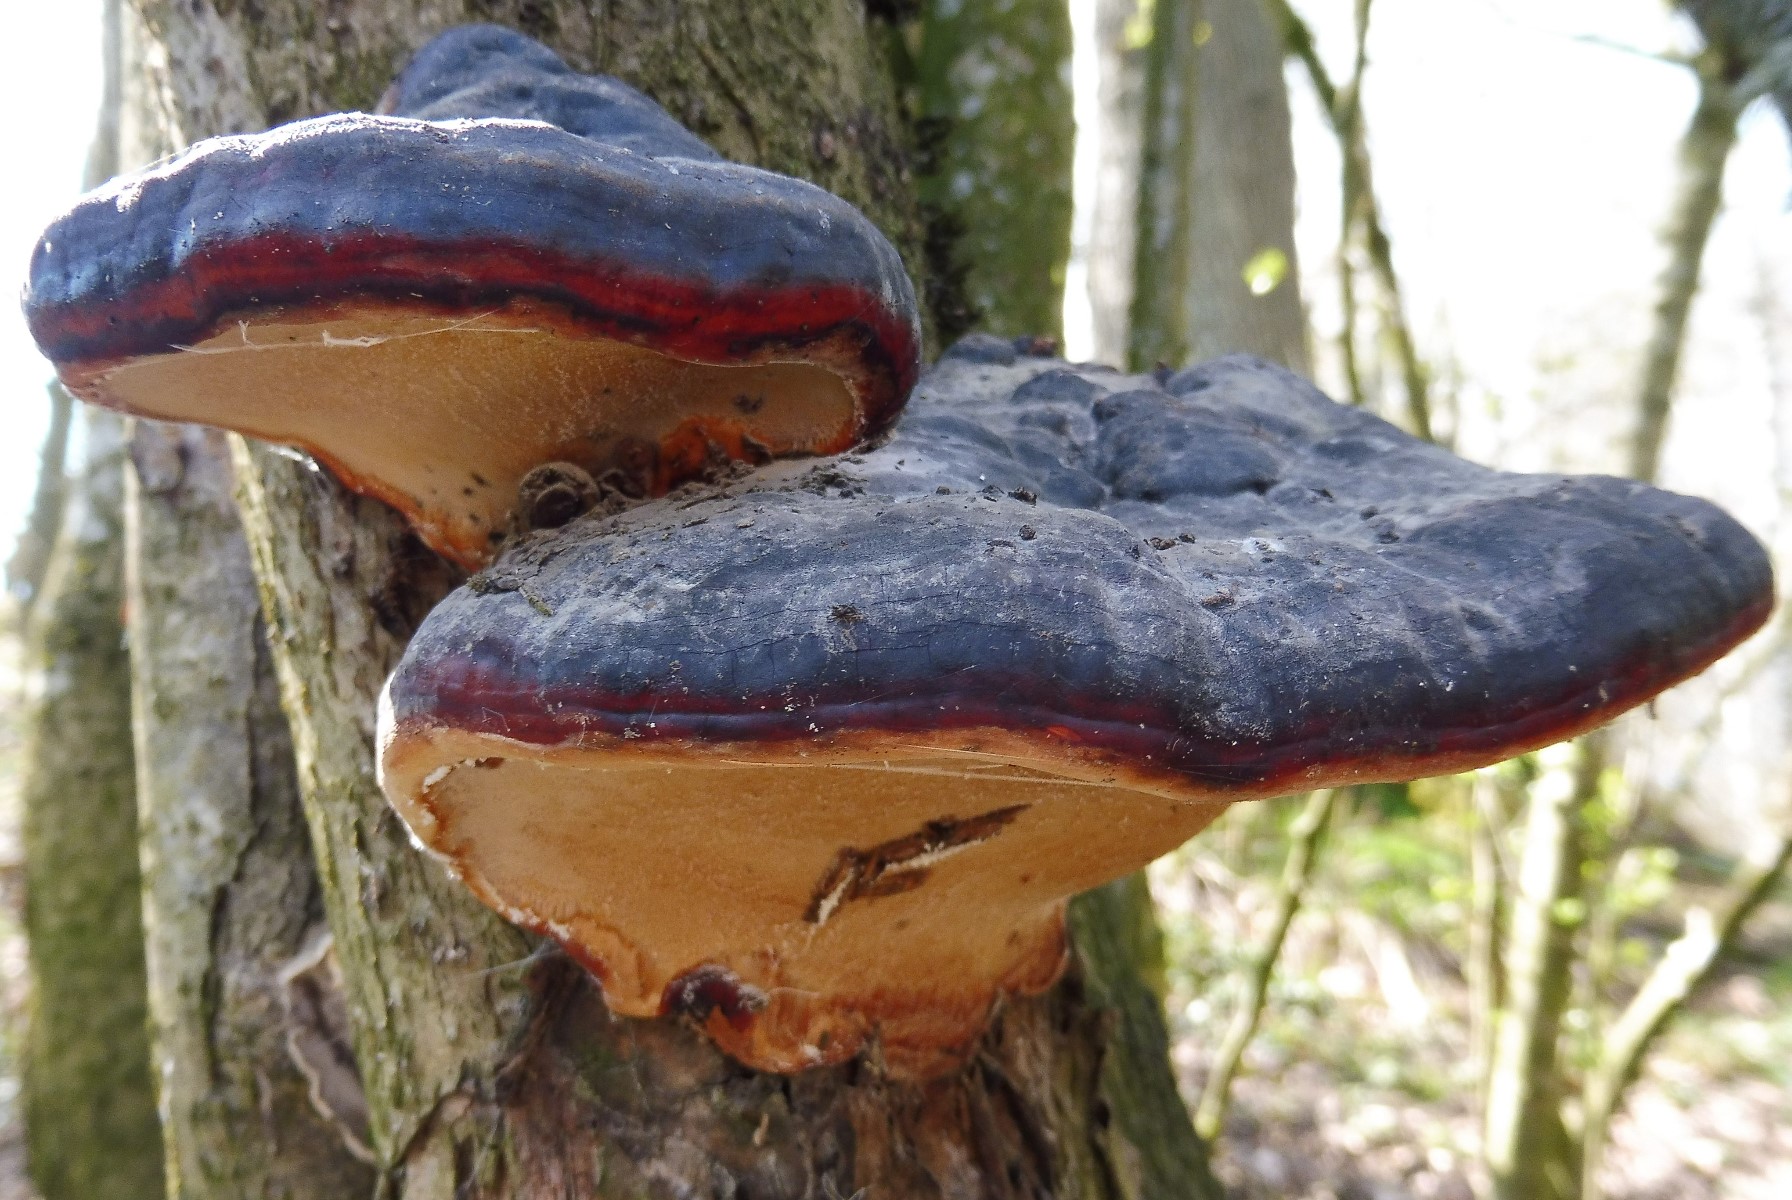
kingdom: Fungi
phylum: Basidiomycota
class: Agaricomycetes
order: Polyporales
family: Fomitopsidaceae
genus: Fomitopsis
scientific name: Fomitopsis pinicola
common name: randbæltet hovporesvamp
